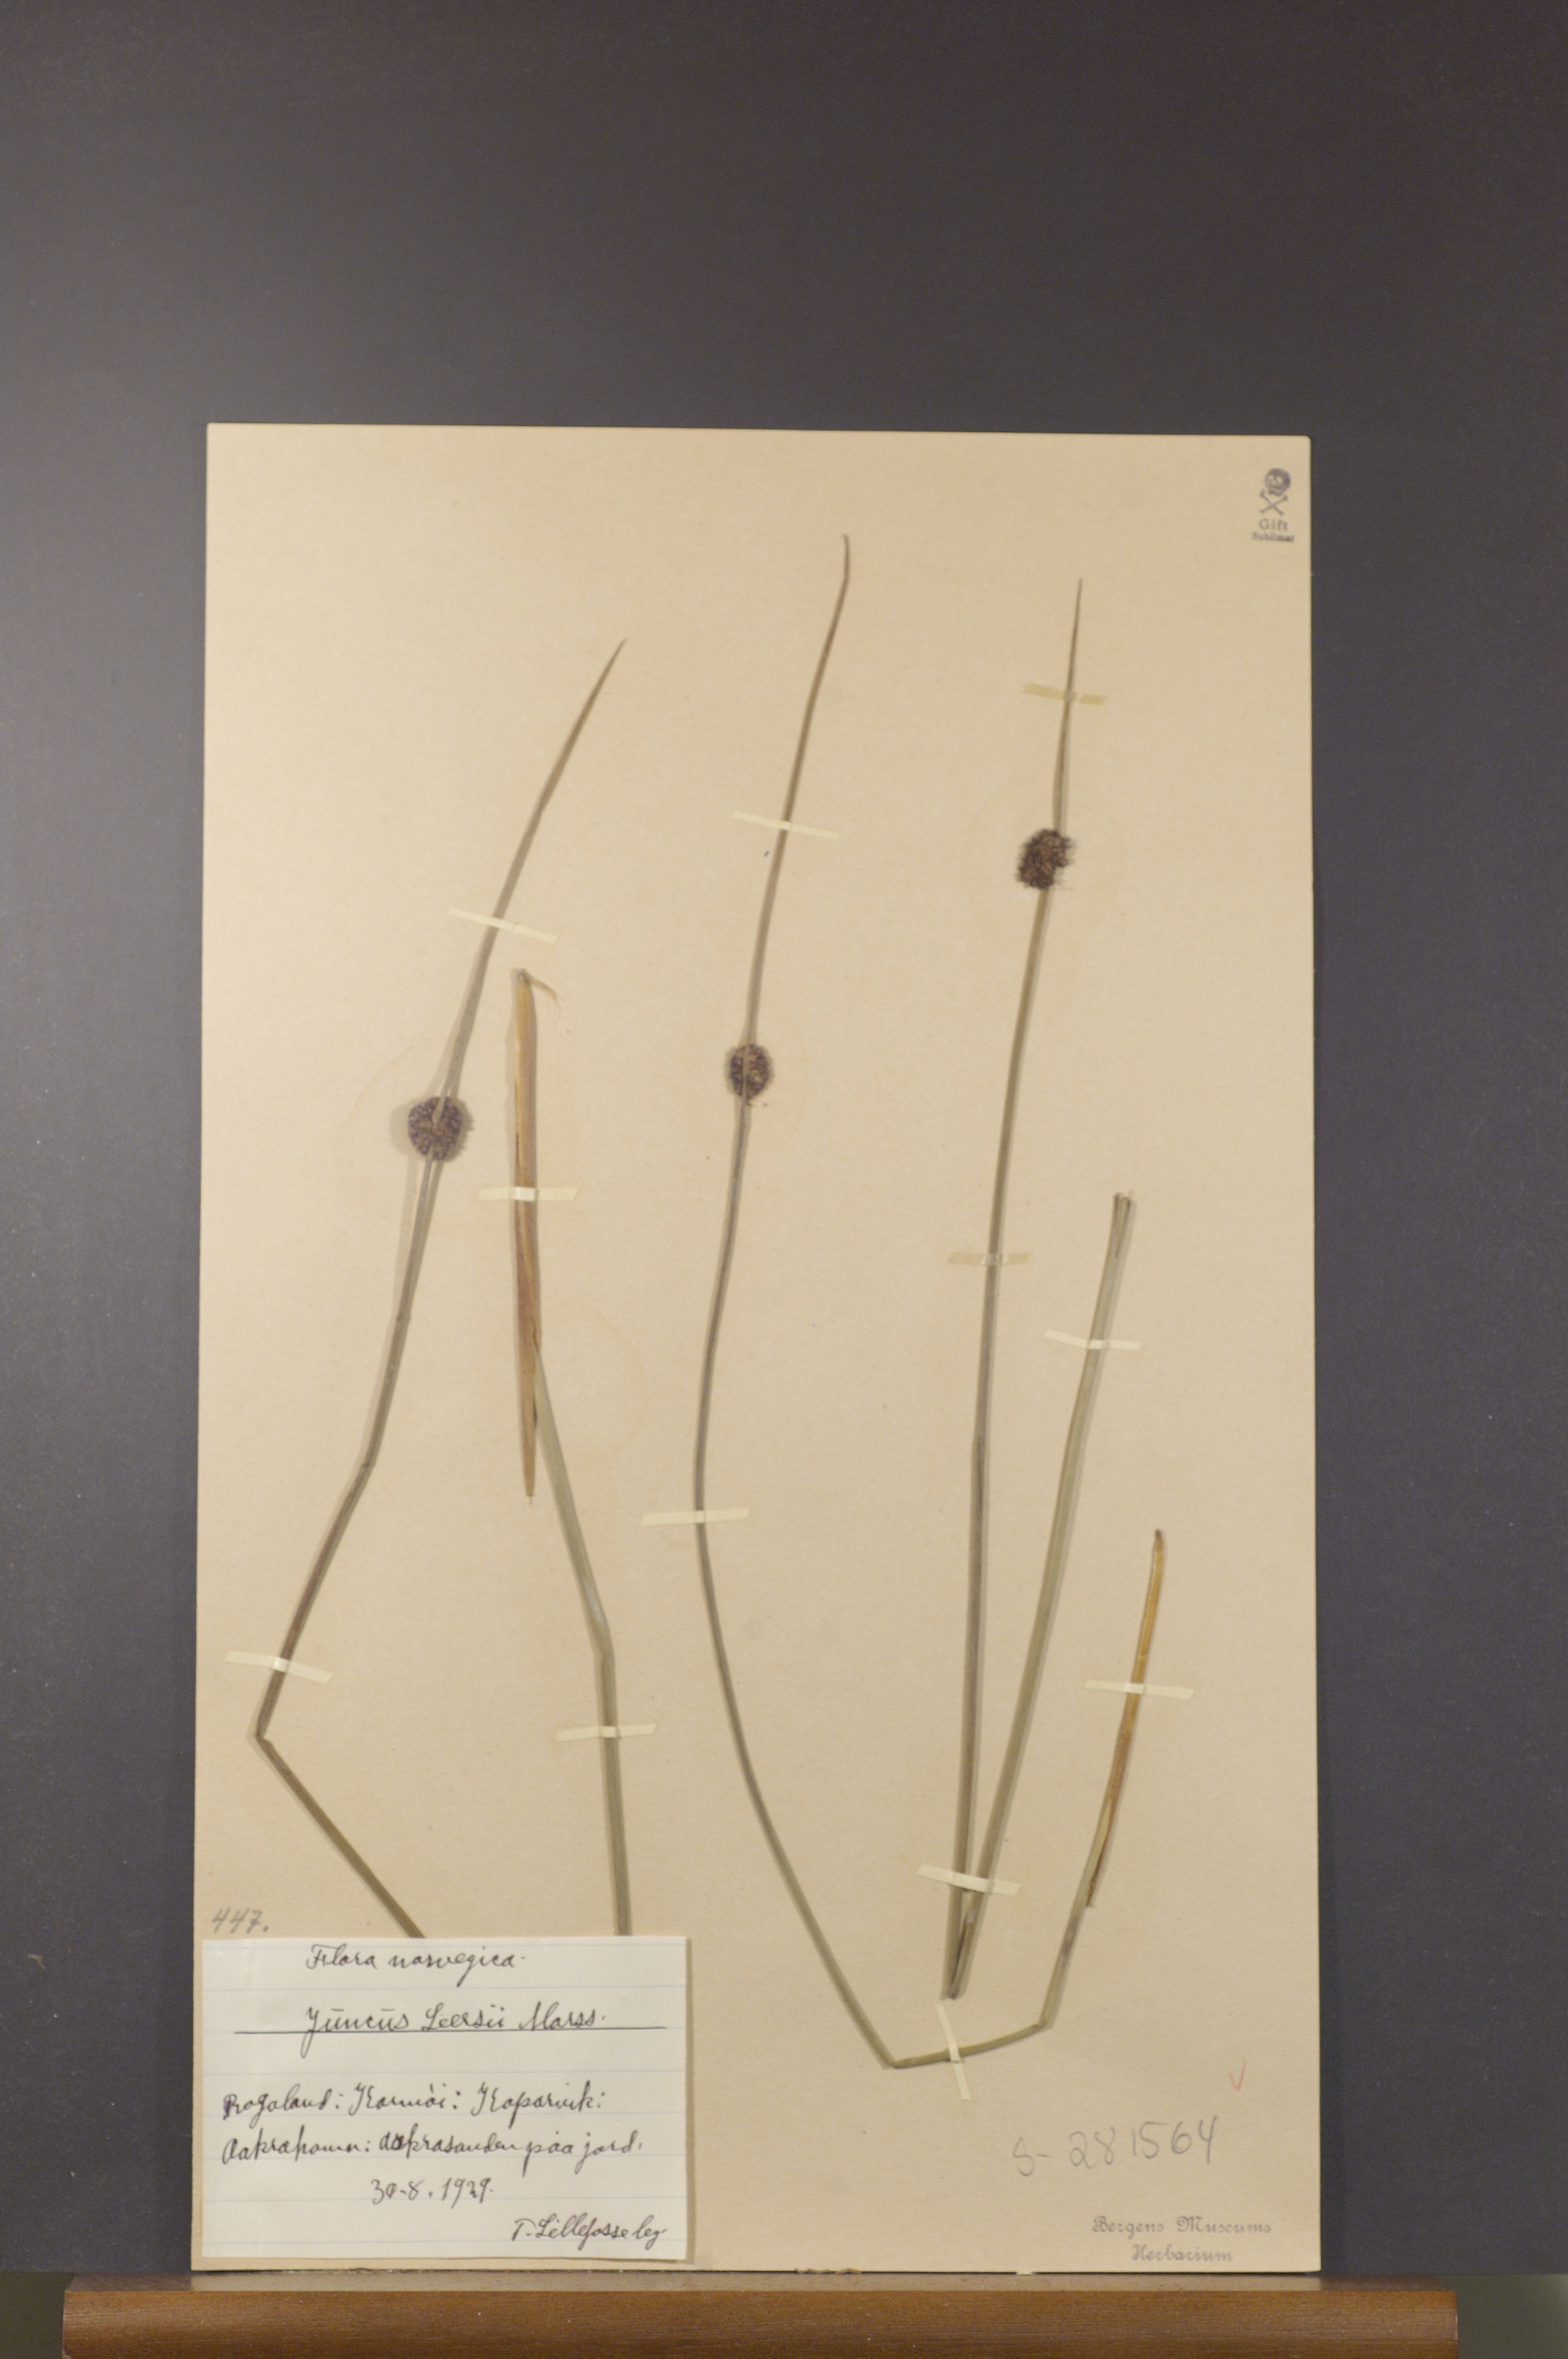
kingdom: Plantae
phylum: Tracheophyta
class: Liliopsida
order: Poales
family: Juncaceae
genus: Juncus
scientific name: Juncus conglomeratus
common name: Compact rush
